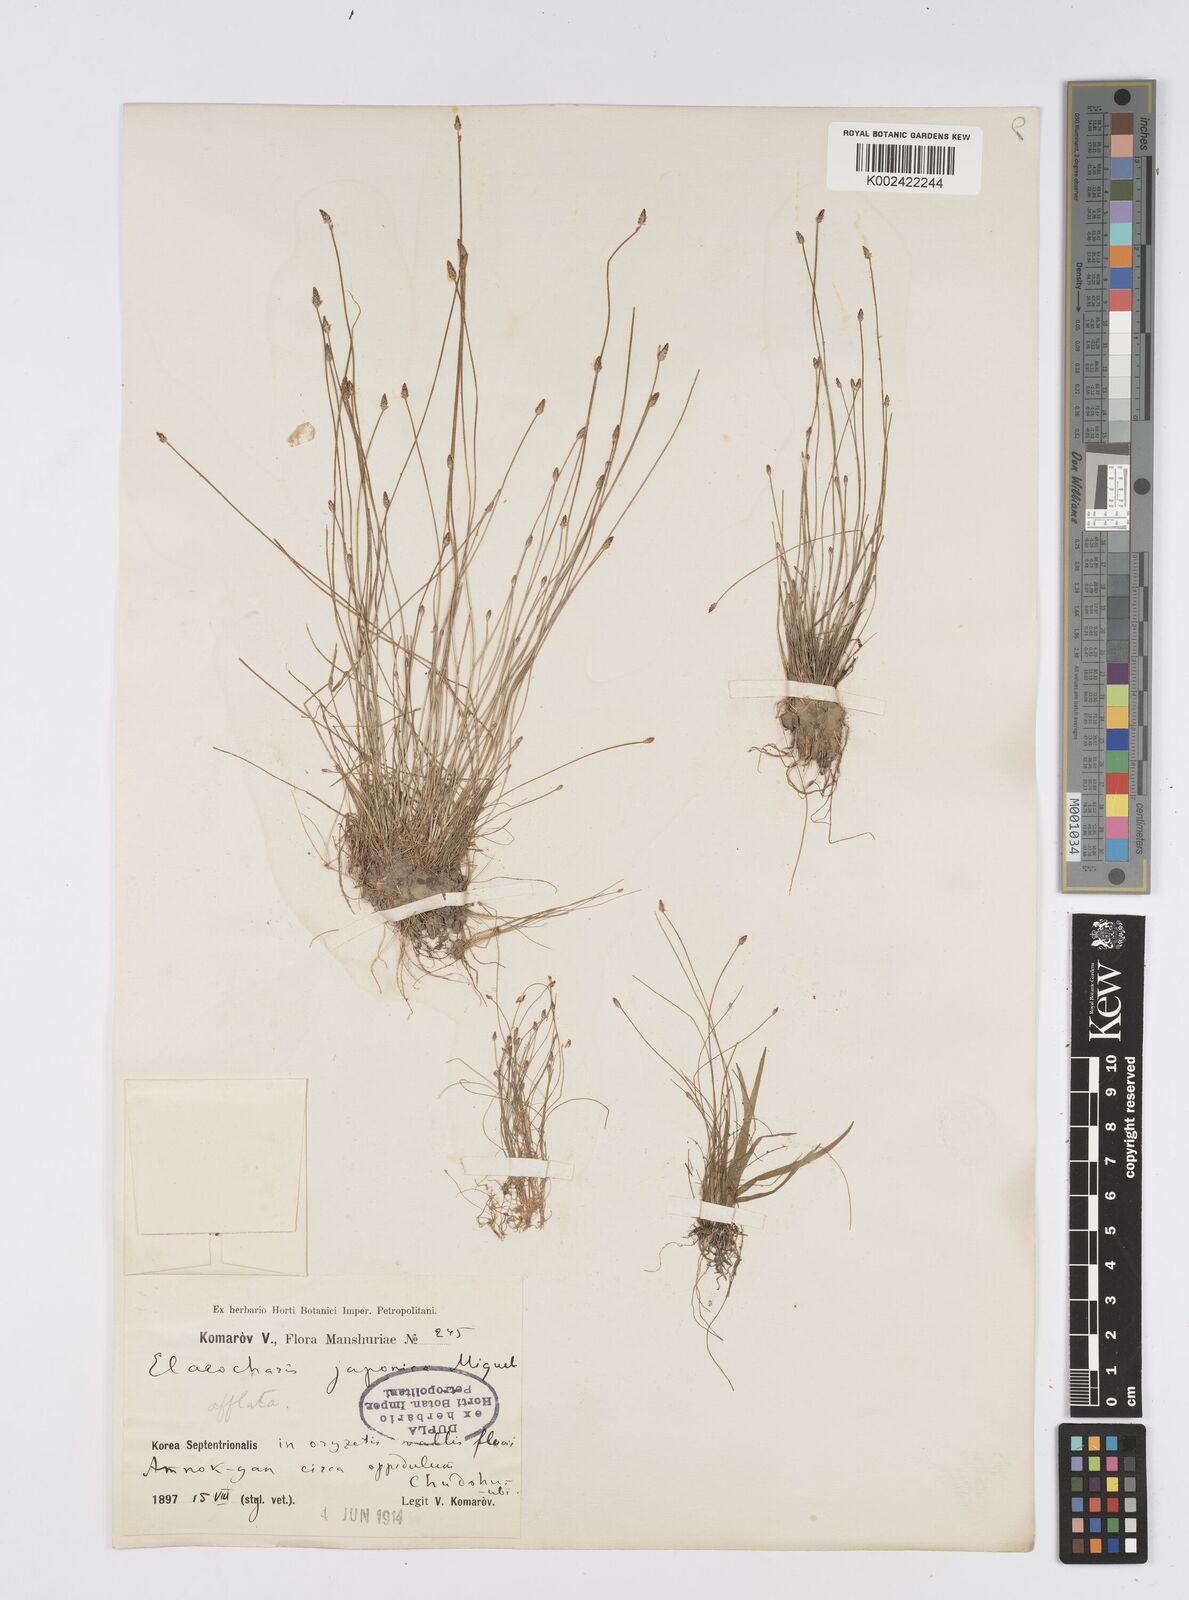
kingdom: Plantae
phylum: Tracheophyta
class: Liliopsida
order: Poales
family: Cyperaceae
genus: Eleocharis
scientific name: Eleocharis pellucida
